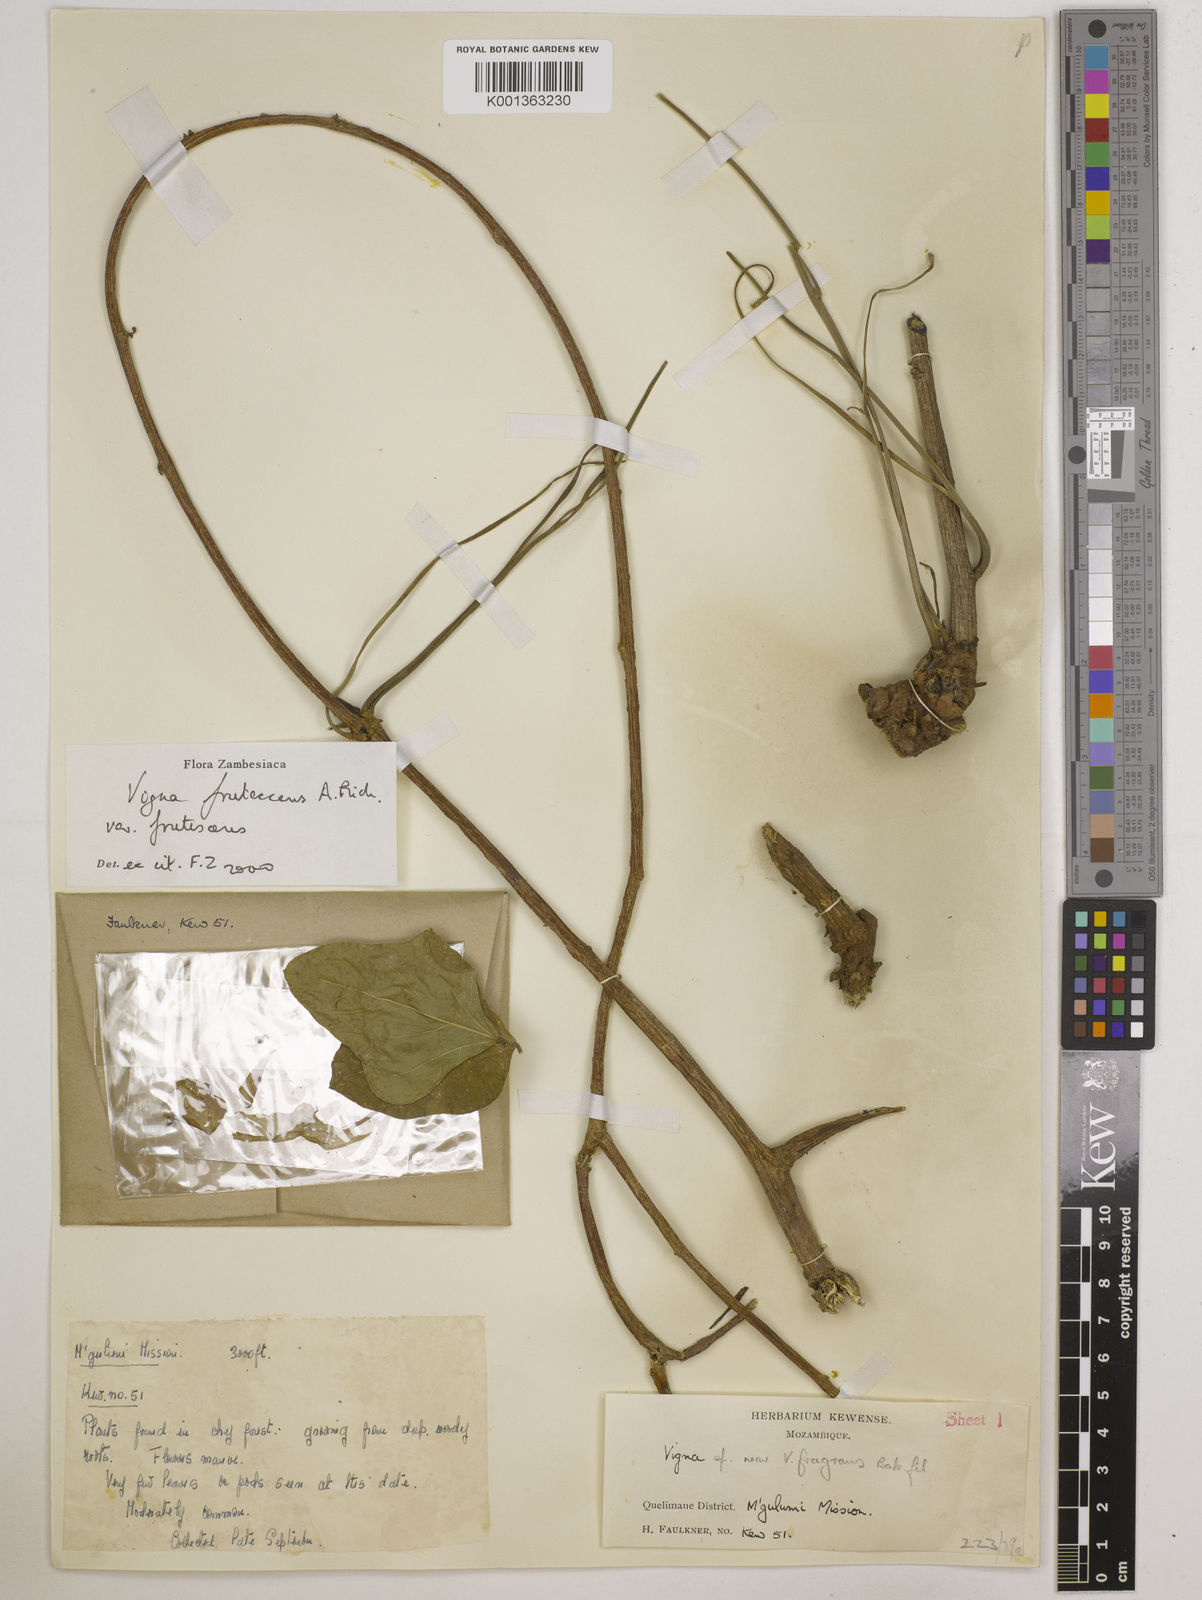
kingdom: Plantae
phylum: Tracheophyta
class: Magnoliopsida
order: Fabales
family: Fabaceae
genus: Vigna
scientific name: Vigna
